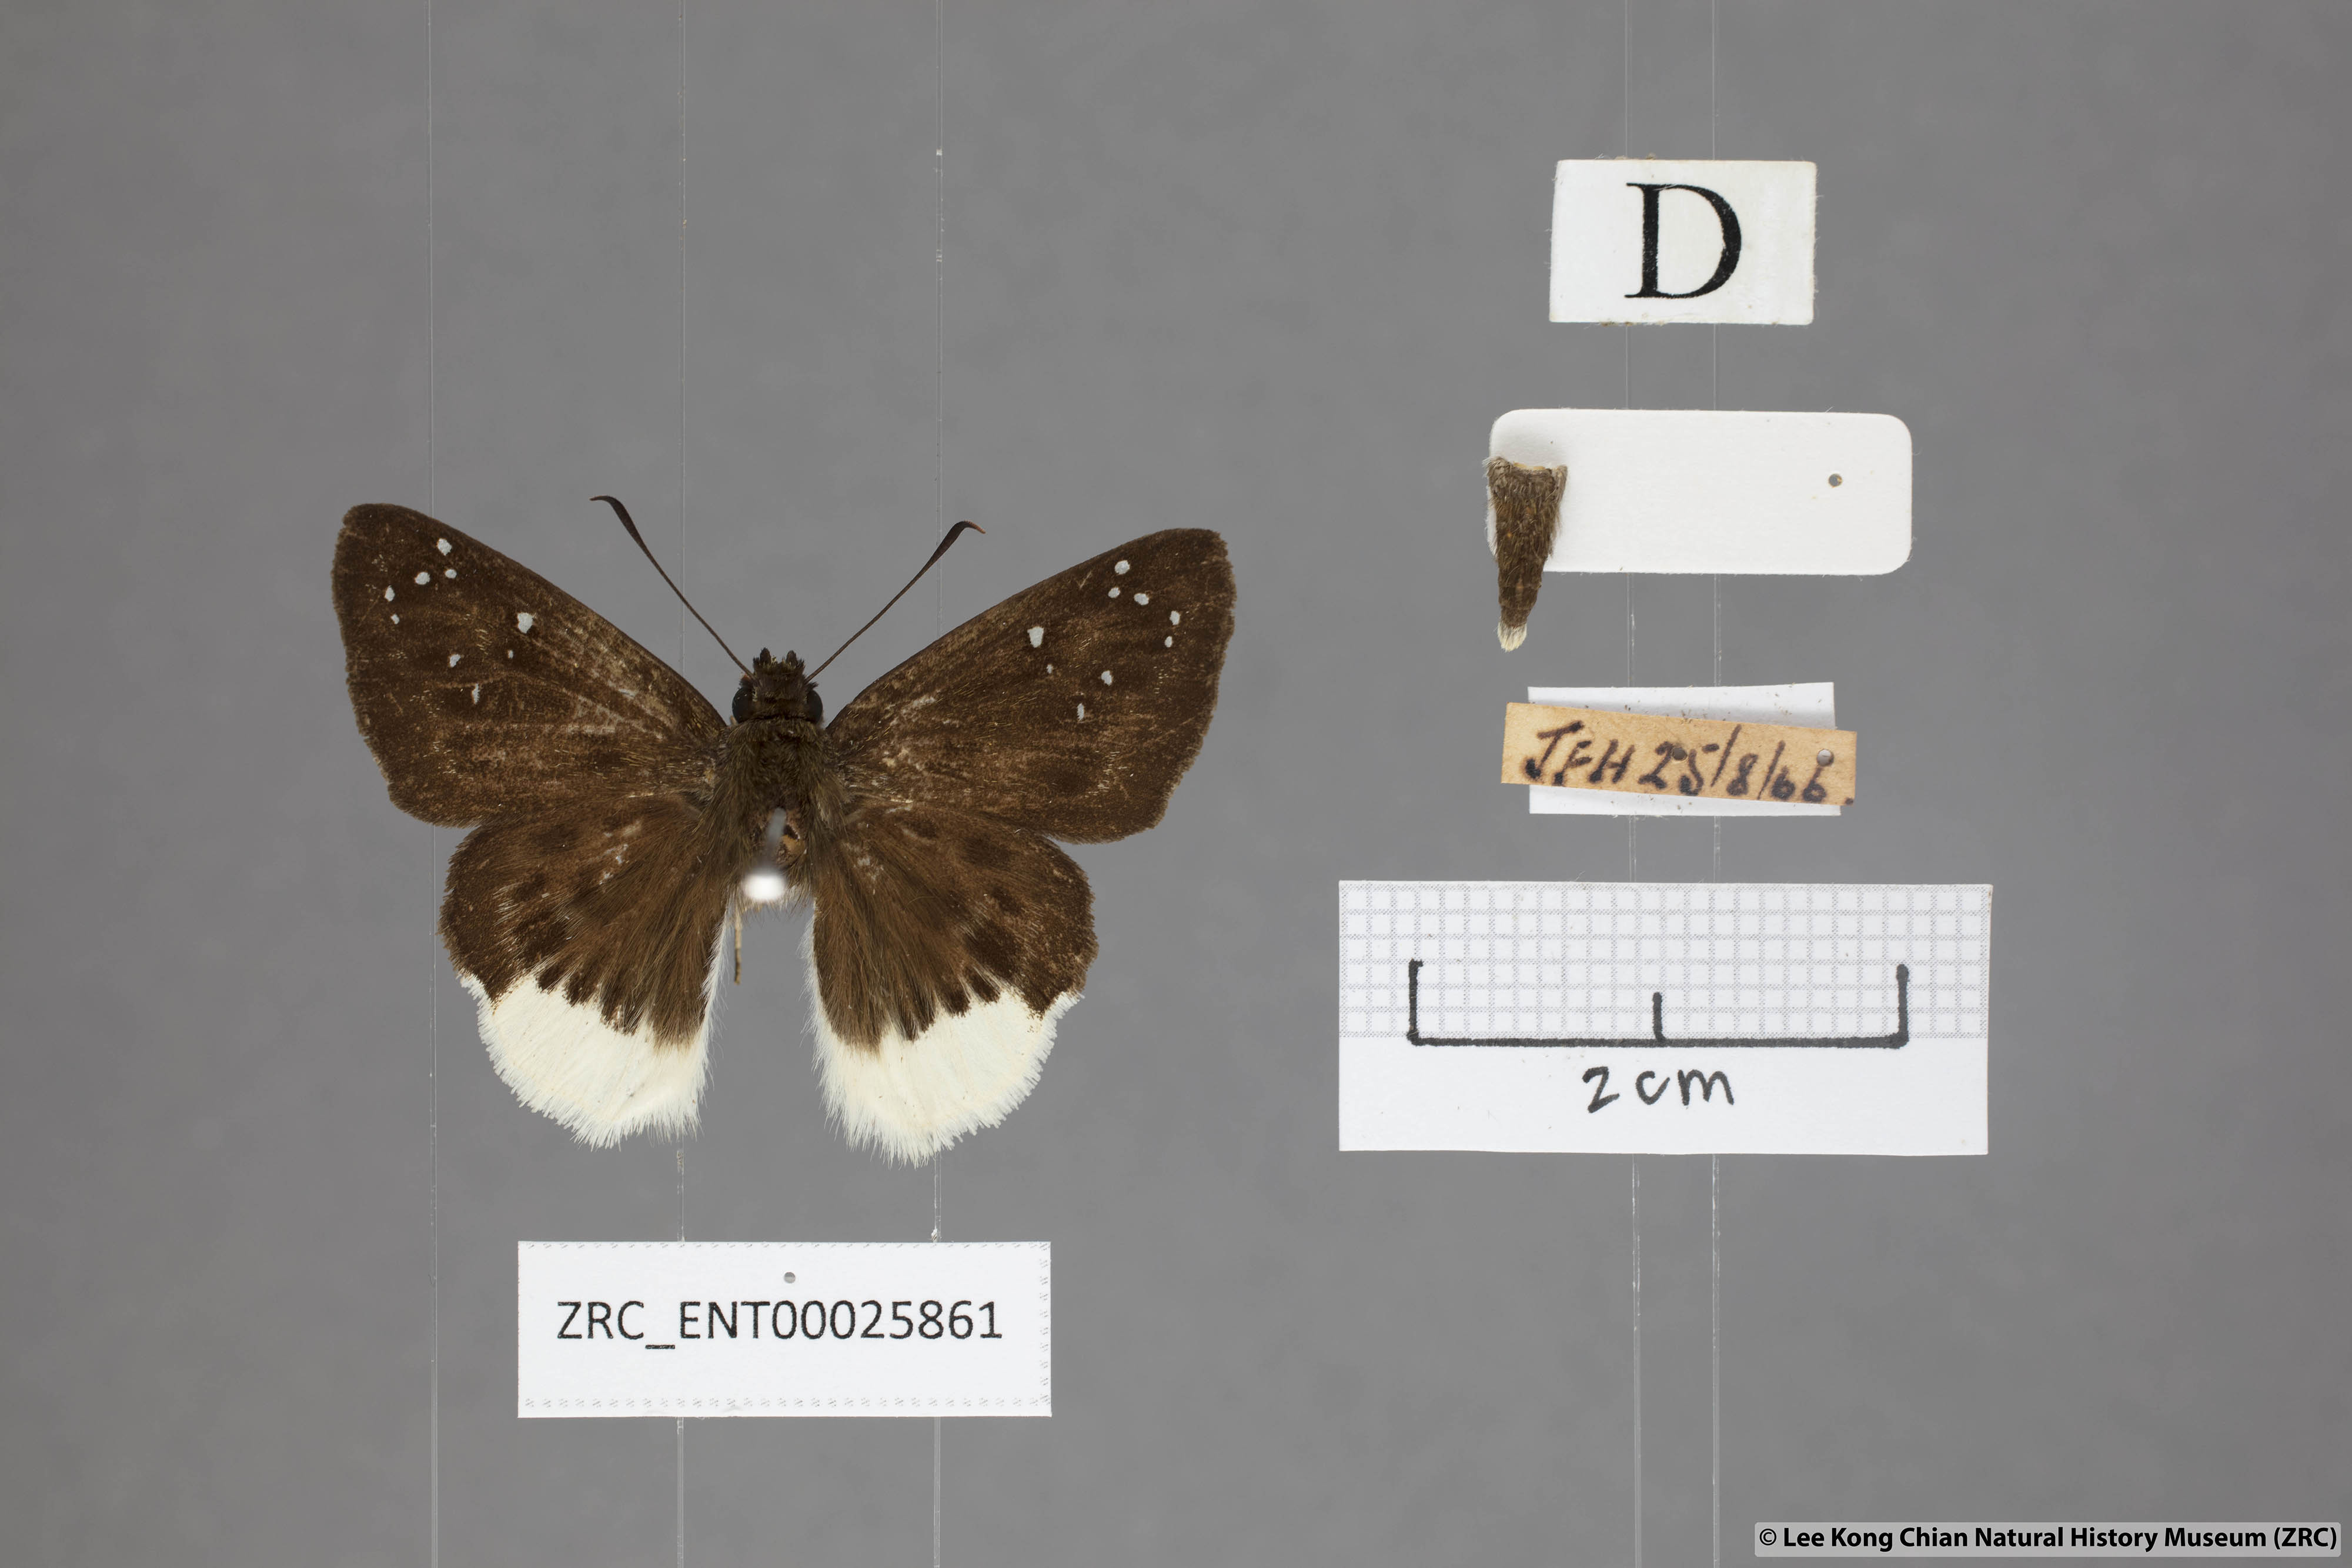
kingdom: Animalia
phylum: Arthropoda
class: Insecta
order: Lepidoptera
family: Hesperiidae
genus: Darpa
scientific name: Darpa pterica
